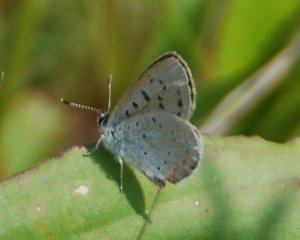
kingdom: Animalia
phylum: Arthropoda
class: Insecta
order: Lepidoptera
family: Sesiidae
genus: Sesia
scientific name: Sesia Lycaena epixanthe
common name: Bog Copper
